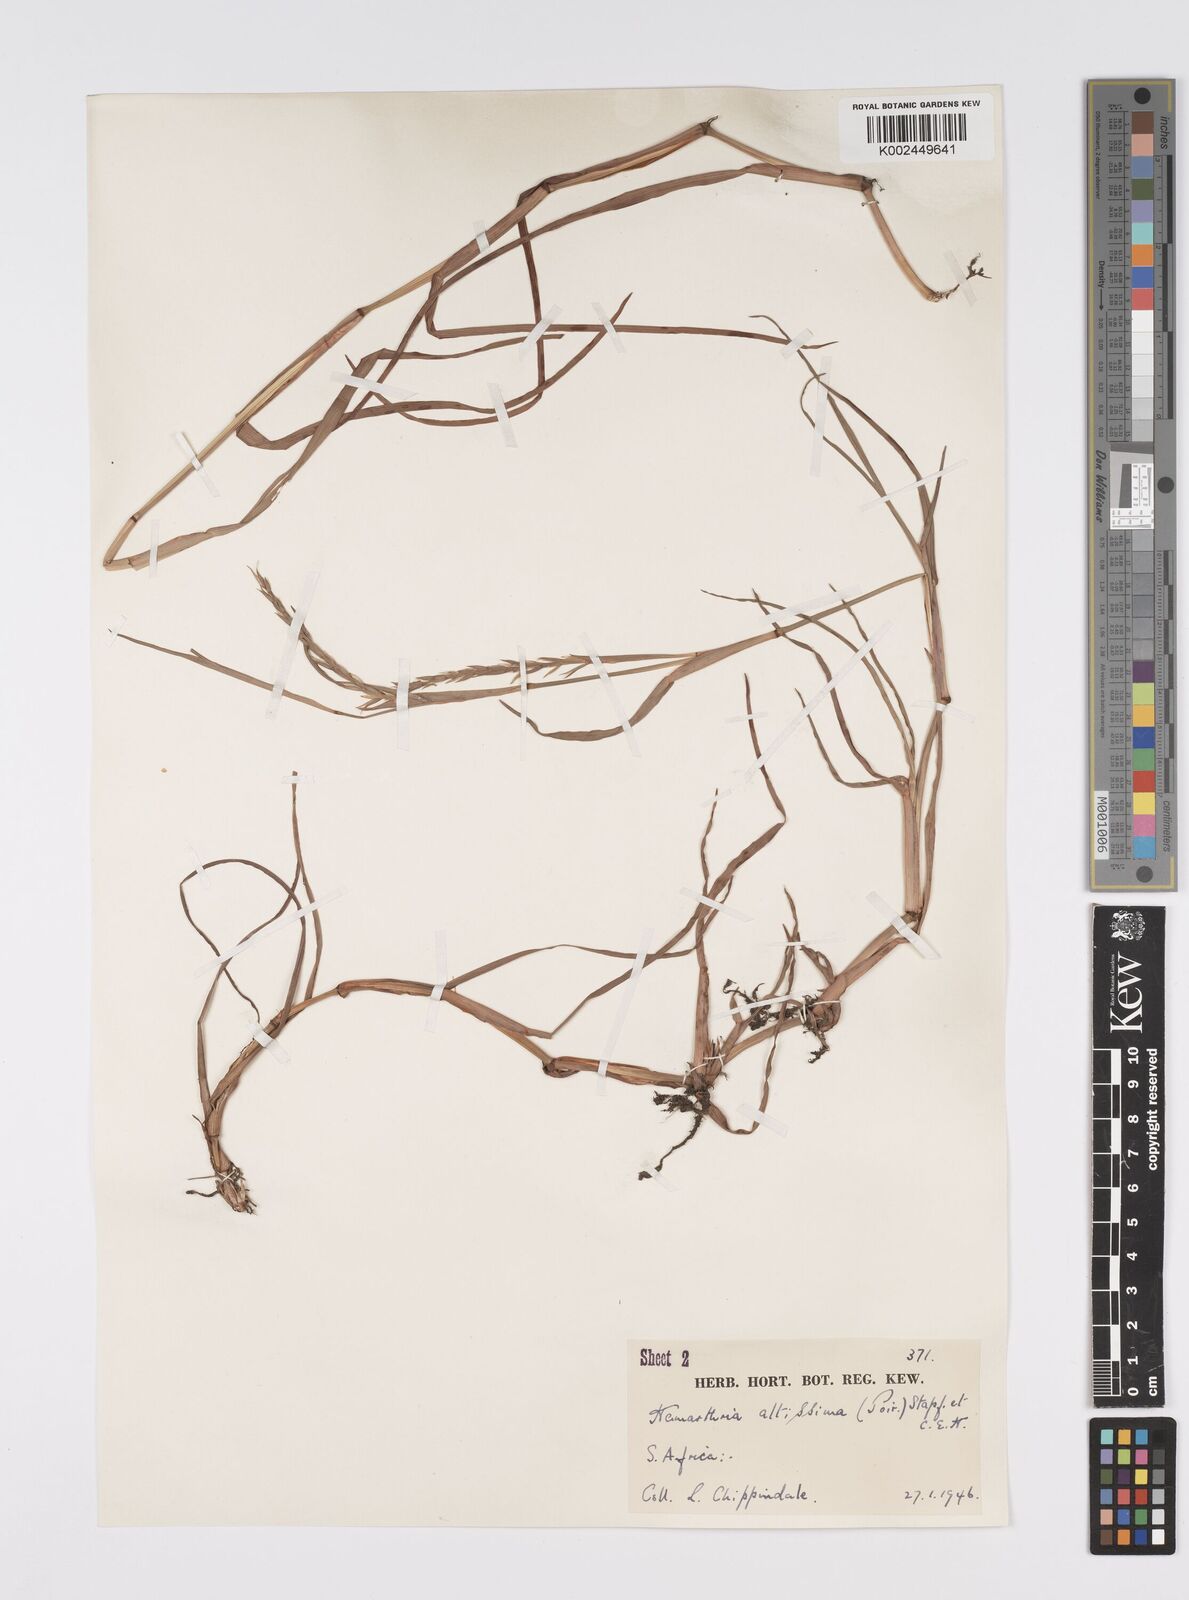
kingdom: Plantae
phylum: Tracheophyta
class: Liliopsida
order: Poales
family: Poaceae
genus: Hemarthria
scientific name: Hemarthria altissima
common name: African jointgrass
